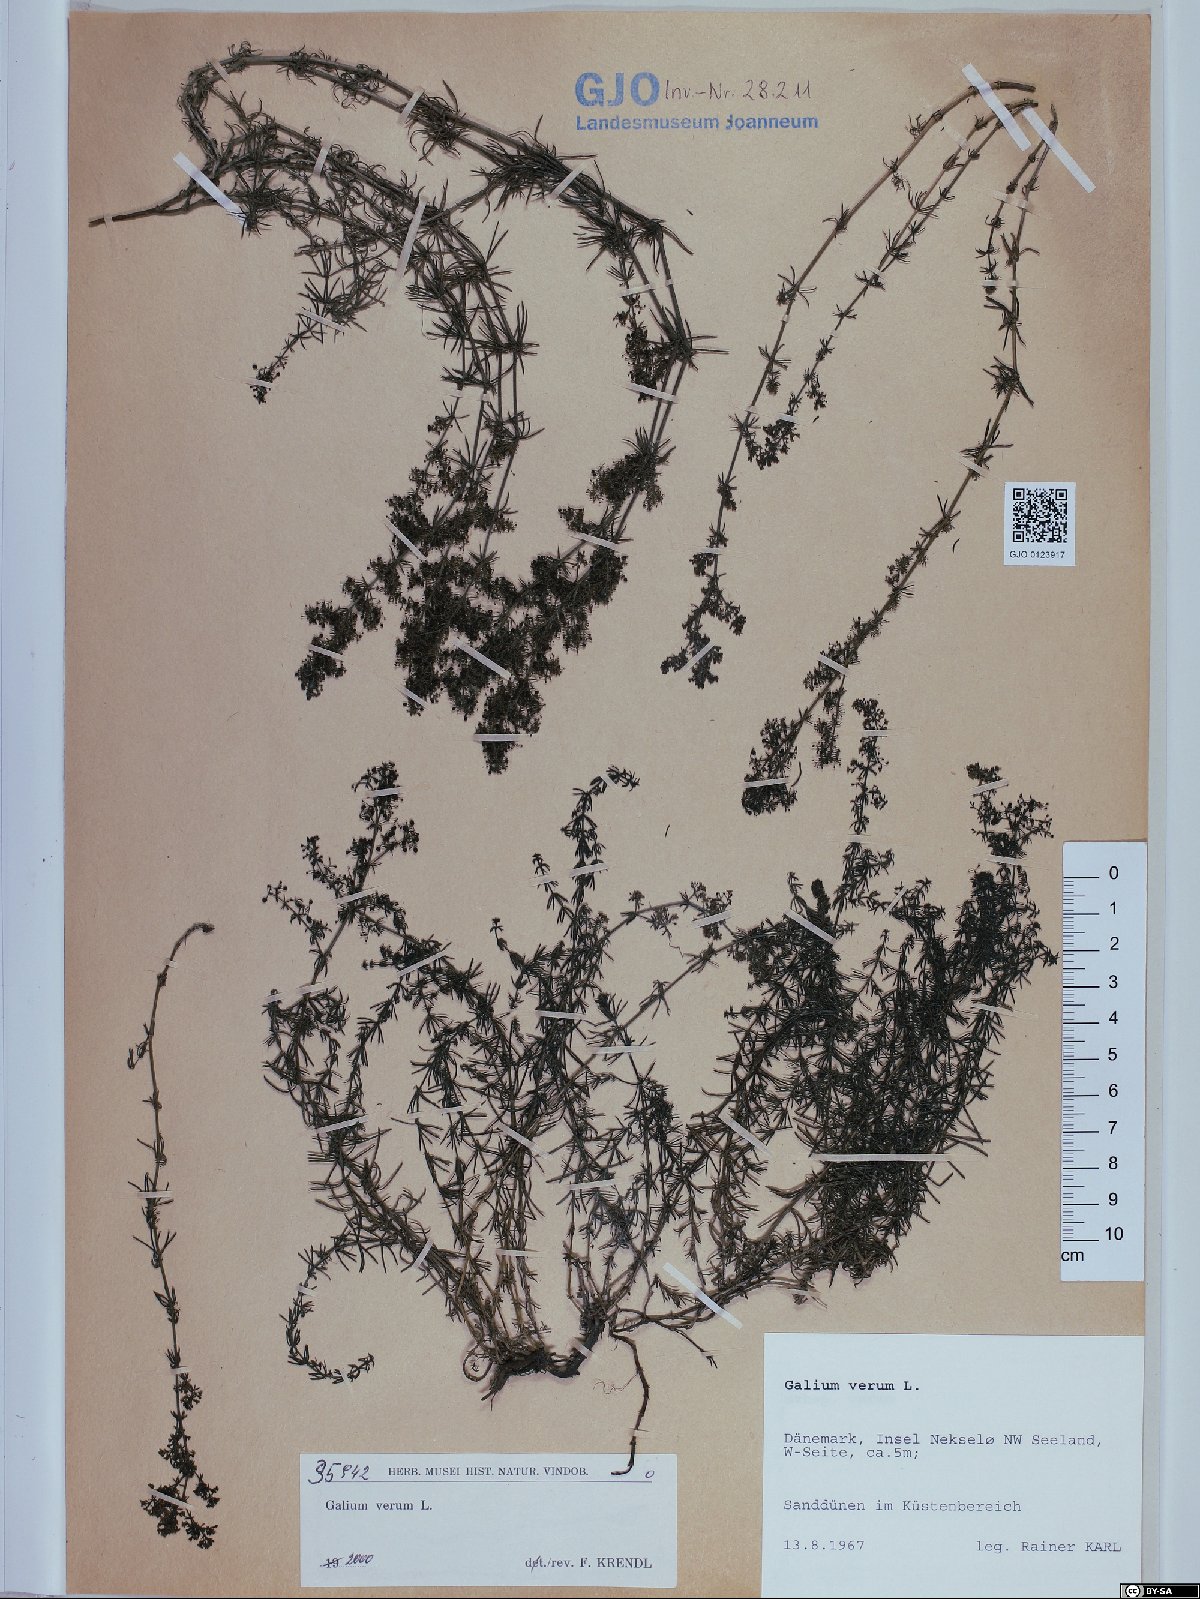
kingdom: Plantae
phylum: Tracheophyta
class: Magnoliopsida
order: Gentianales
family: Rubiaceae
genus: Galium
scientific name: Galium verum
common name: Lady's bedstraw
